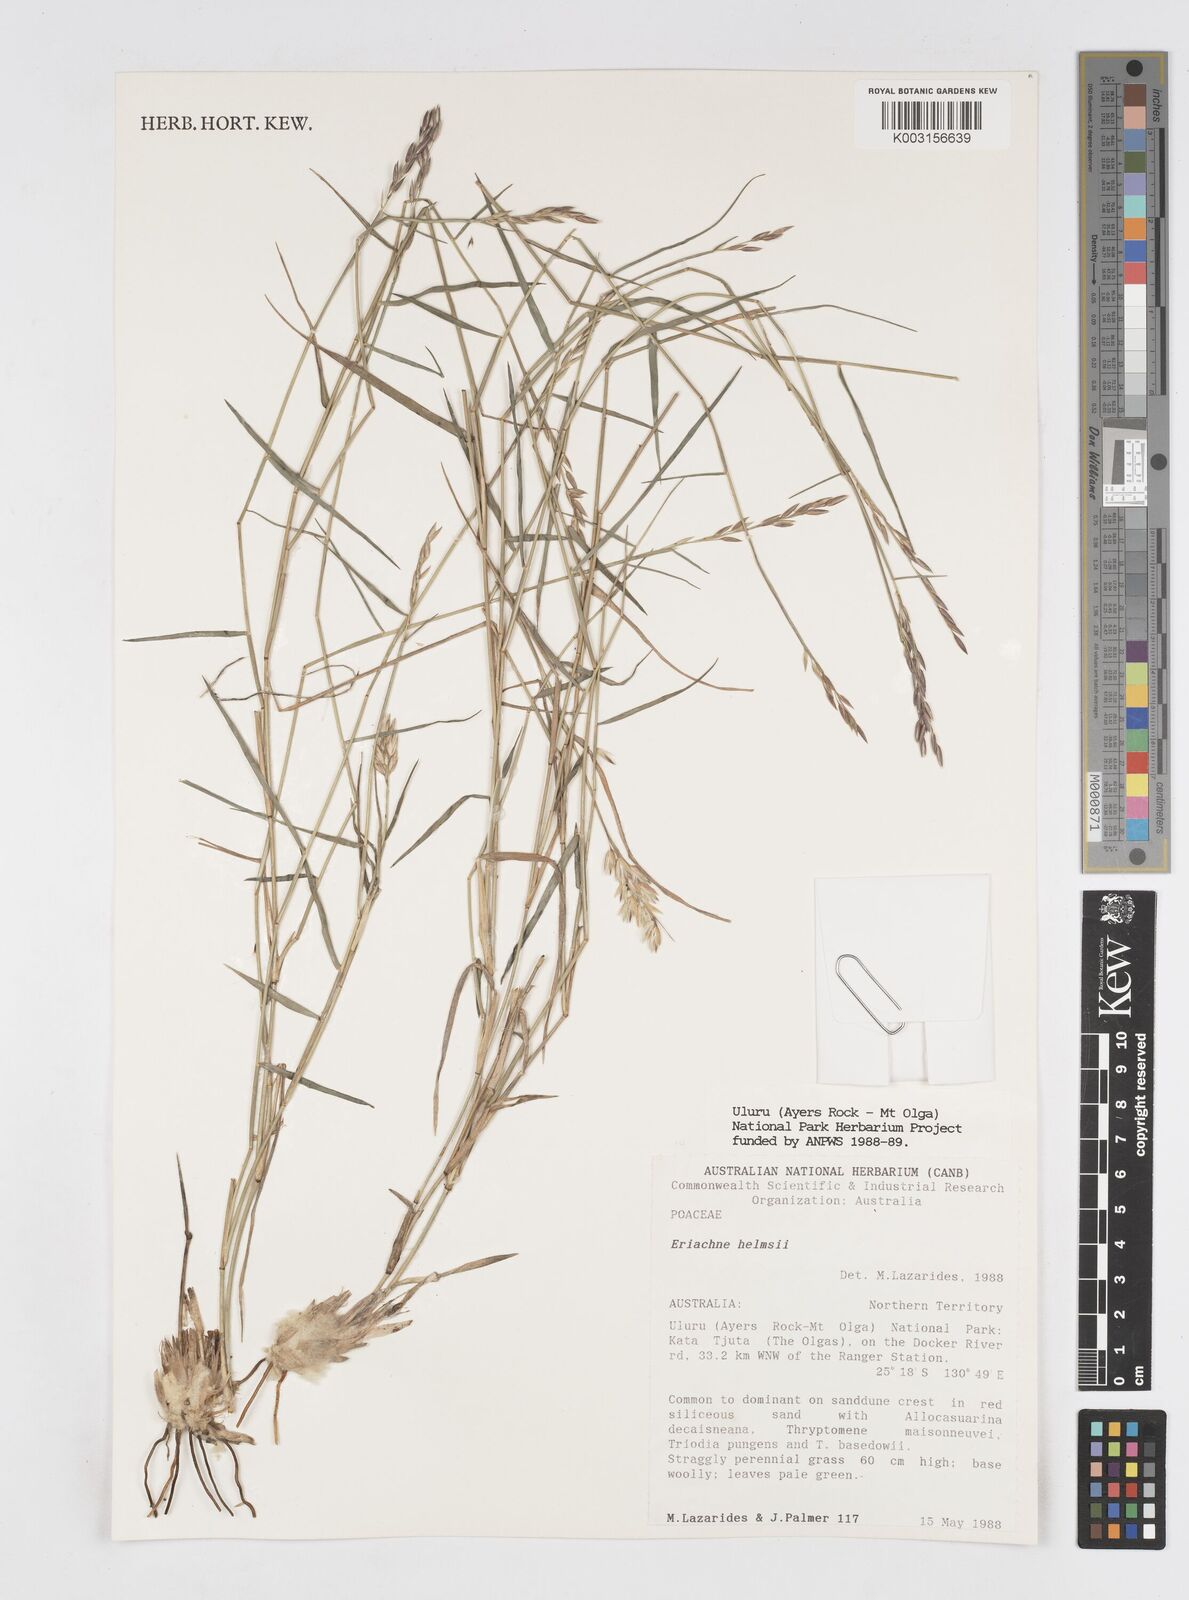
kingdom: Plantae
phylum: Tracheophyta
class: Liliopsida
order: Poales
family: Poaceae
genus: Eriachne
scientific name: Eriachne helmsii
